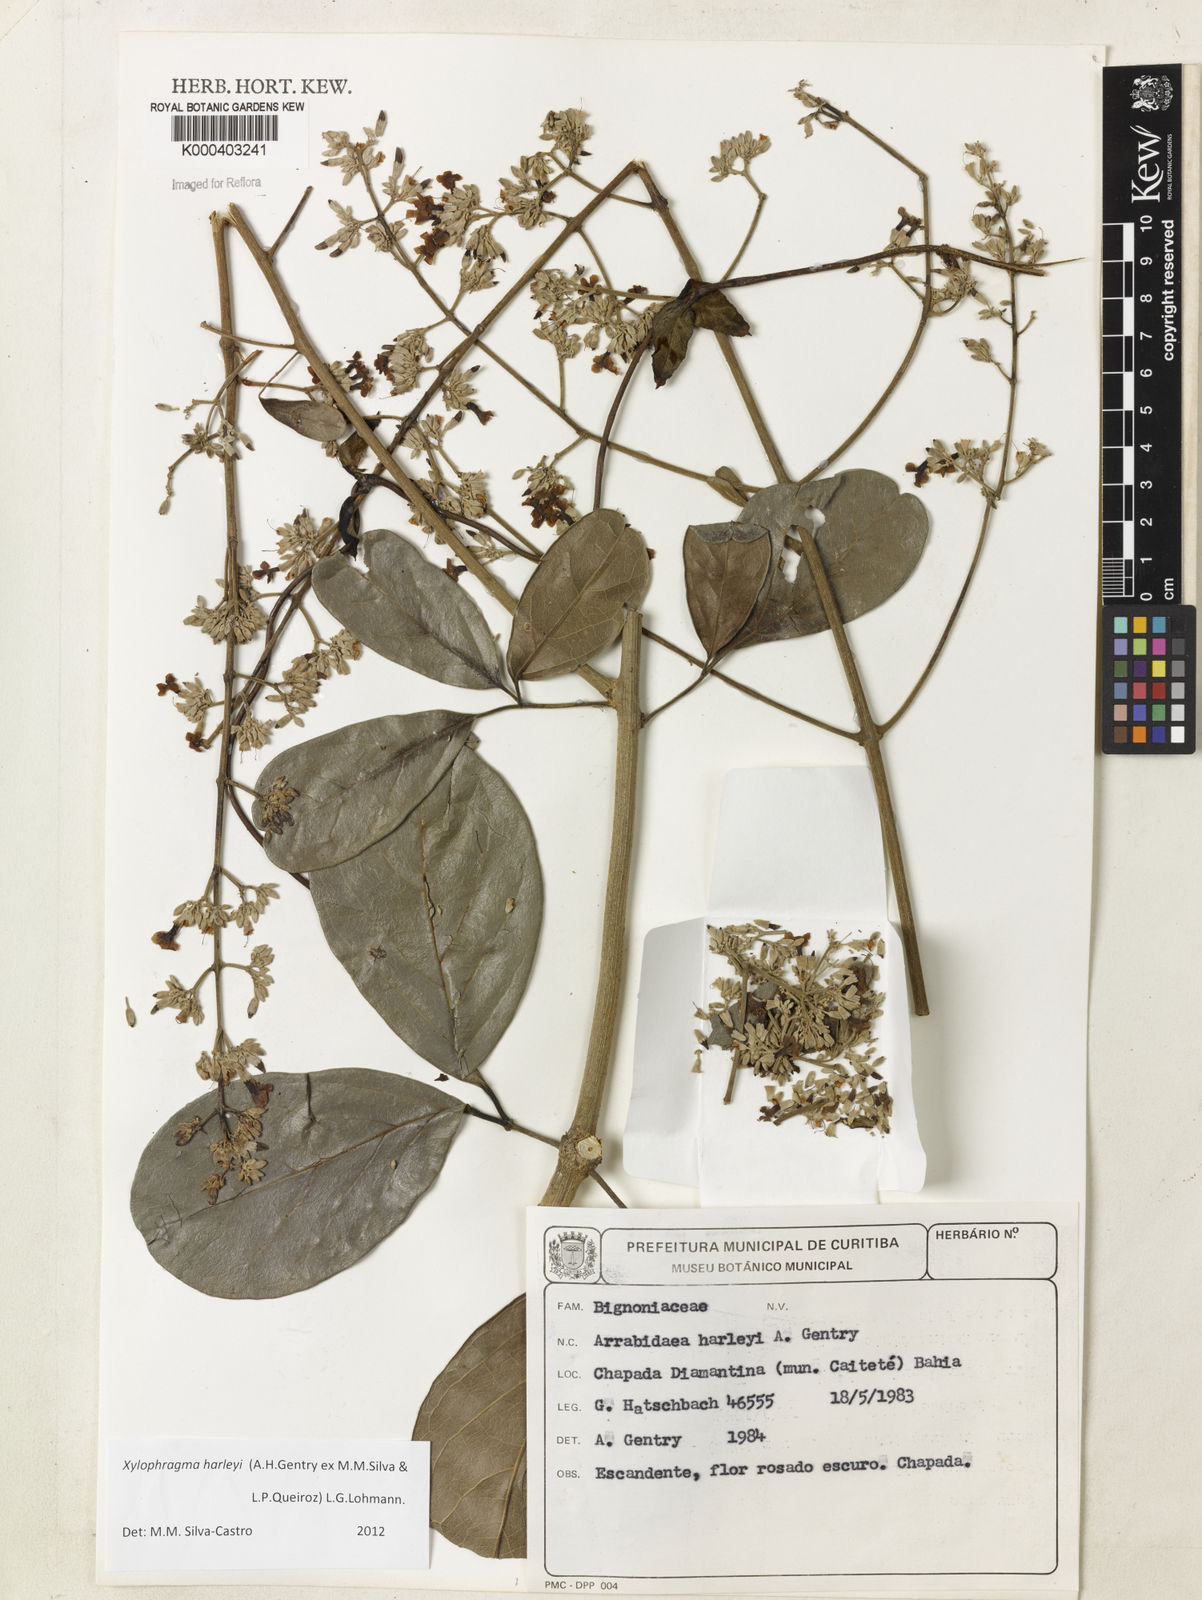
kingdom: Plantae
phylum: Tracheophyta
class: Magnoliopsida
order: Lamiales
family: Bignoniaceae
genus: Xylophragma
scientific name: Xylophragma harleyi
